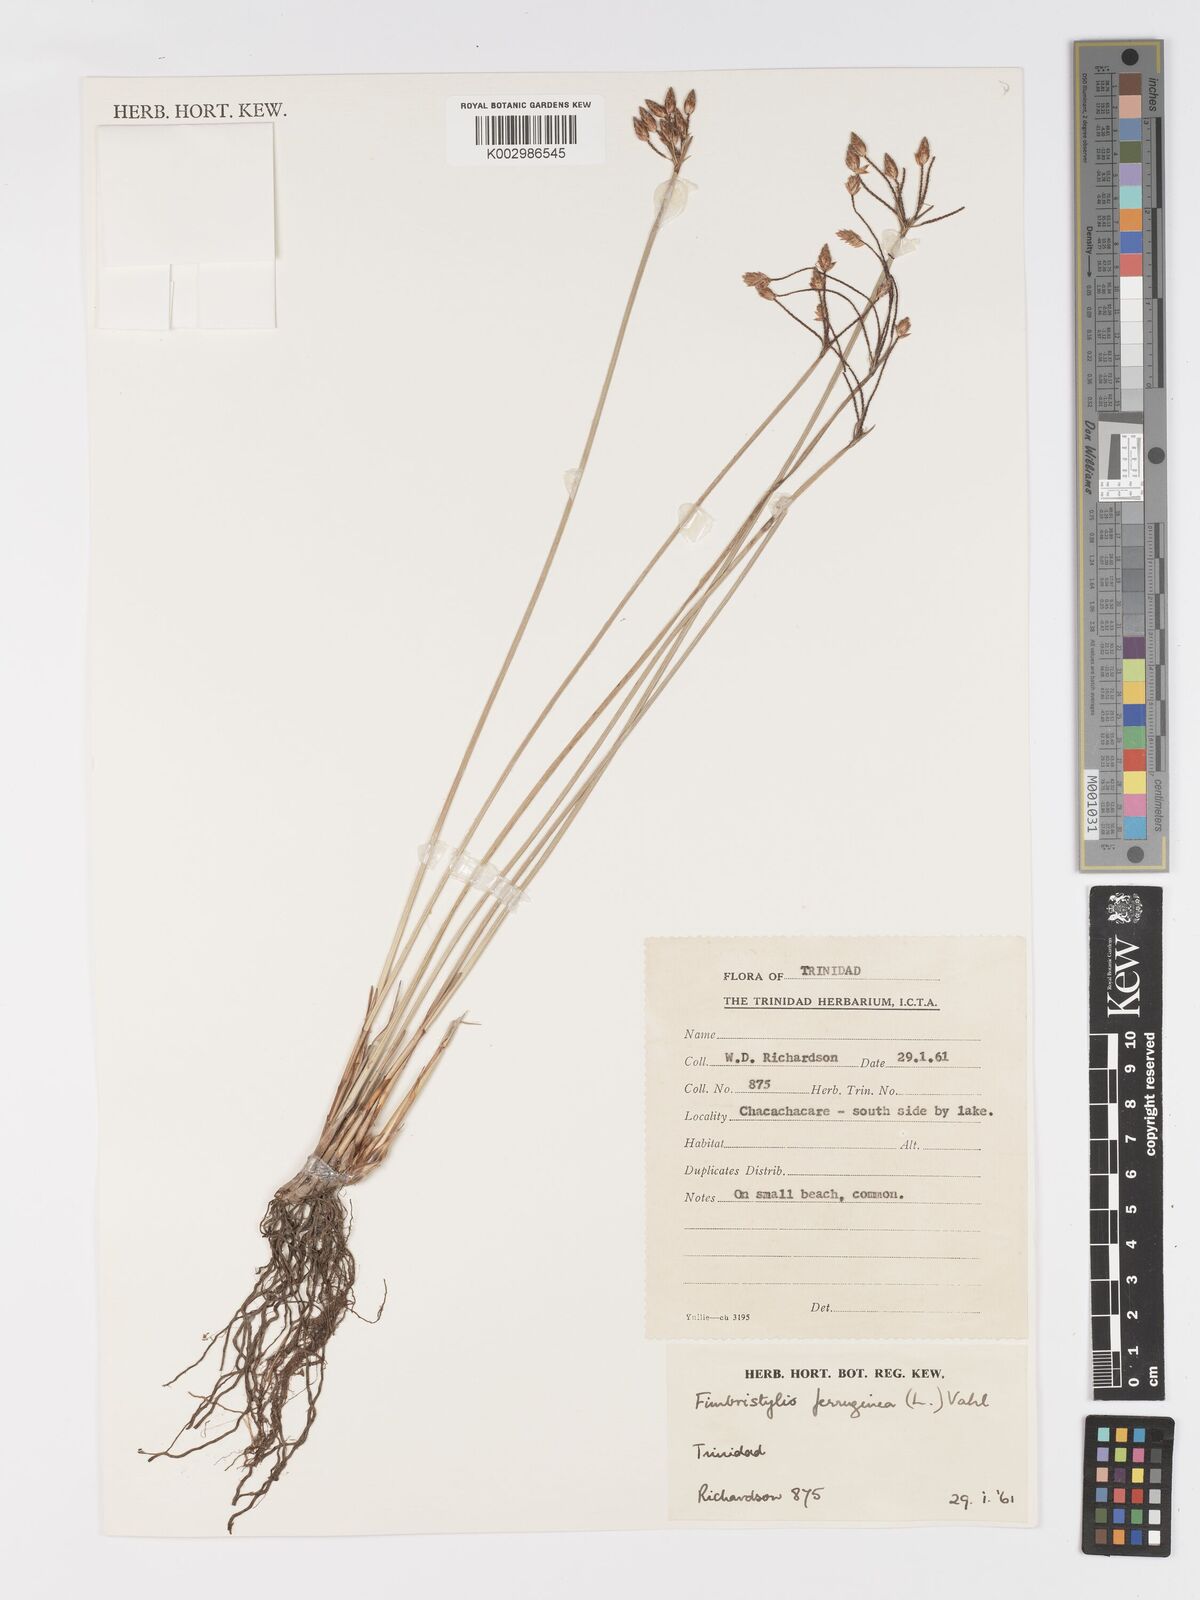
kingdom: Plantae
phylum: Tracheophyta
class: Liliopsida
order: Poales
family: Cyperaceae
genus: Fimbristylis
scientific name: Fimbristylis ferruginea
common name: West indian fimbry
